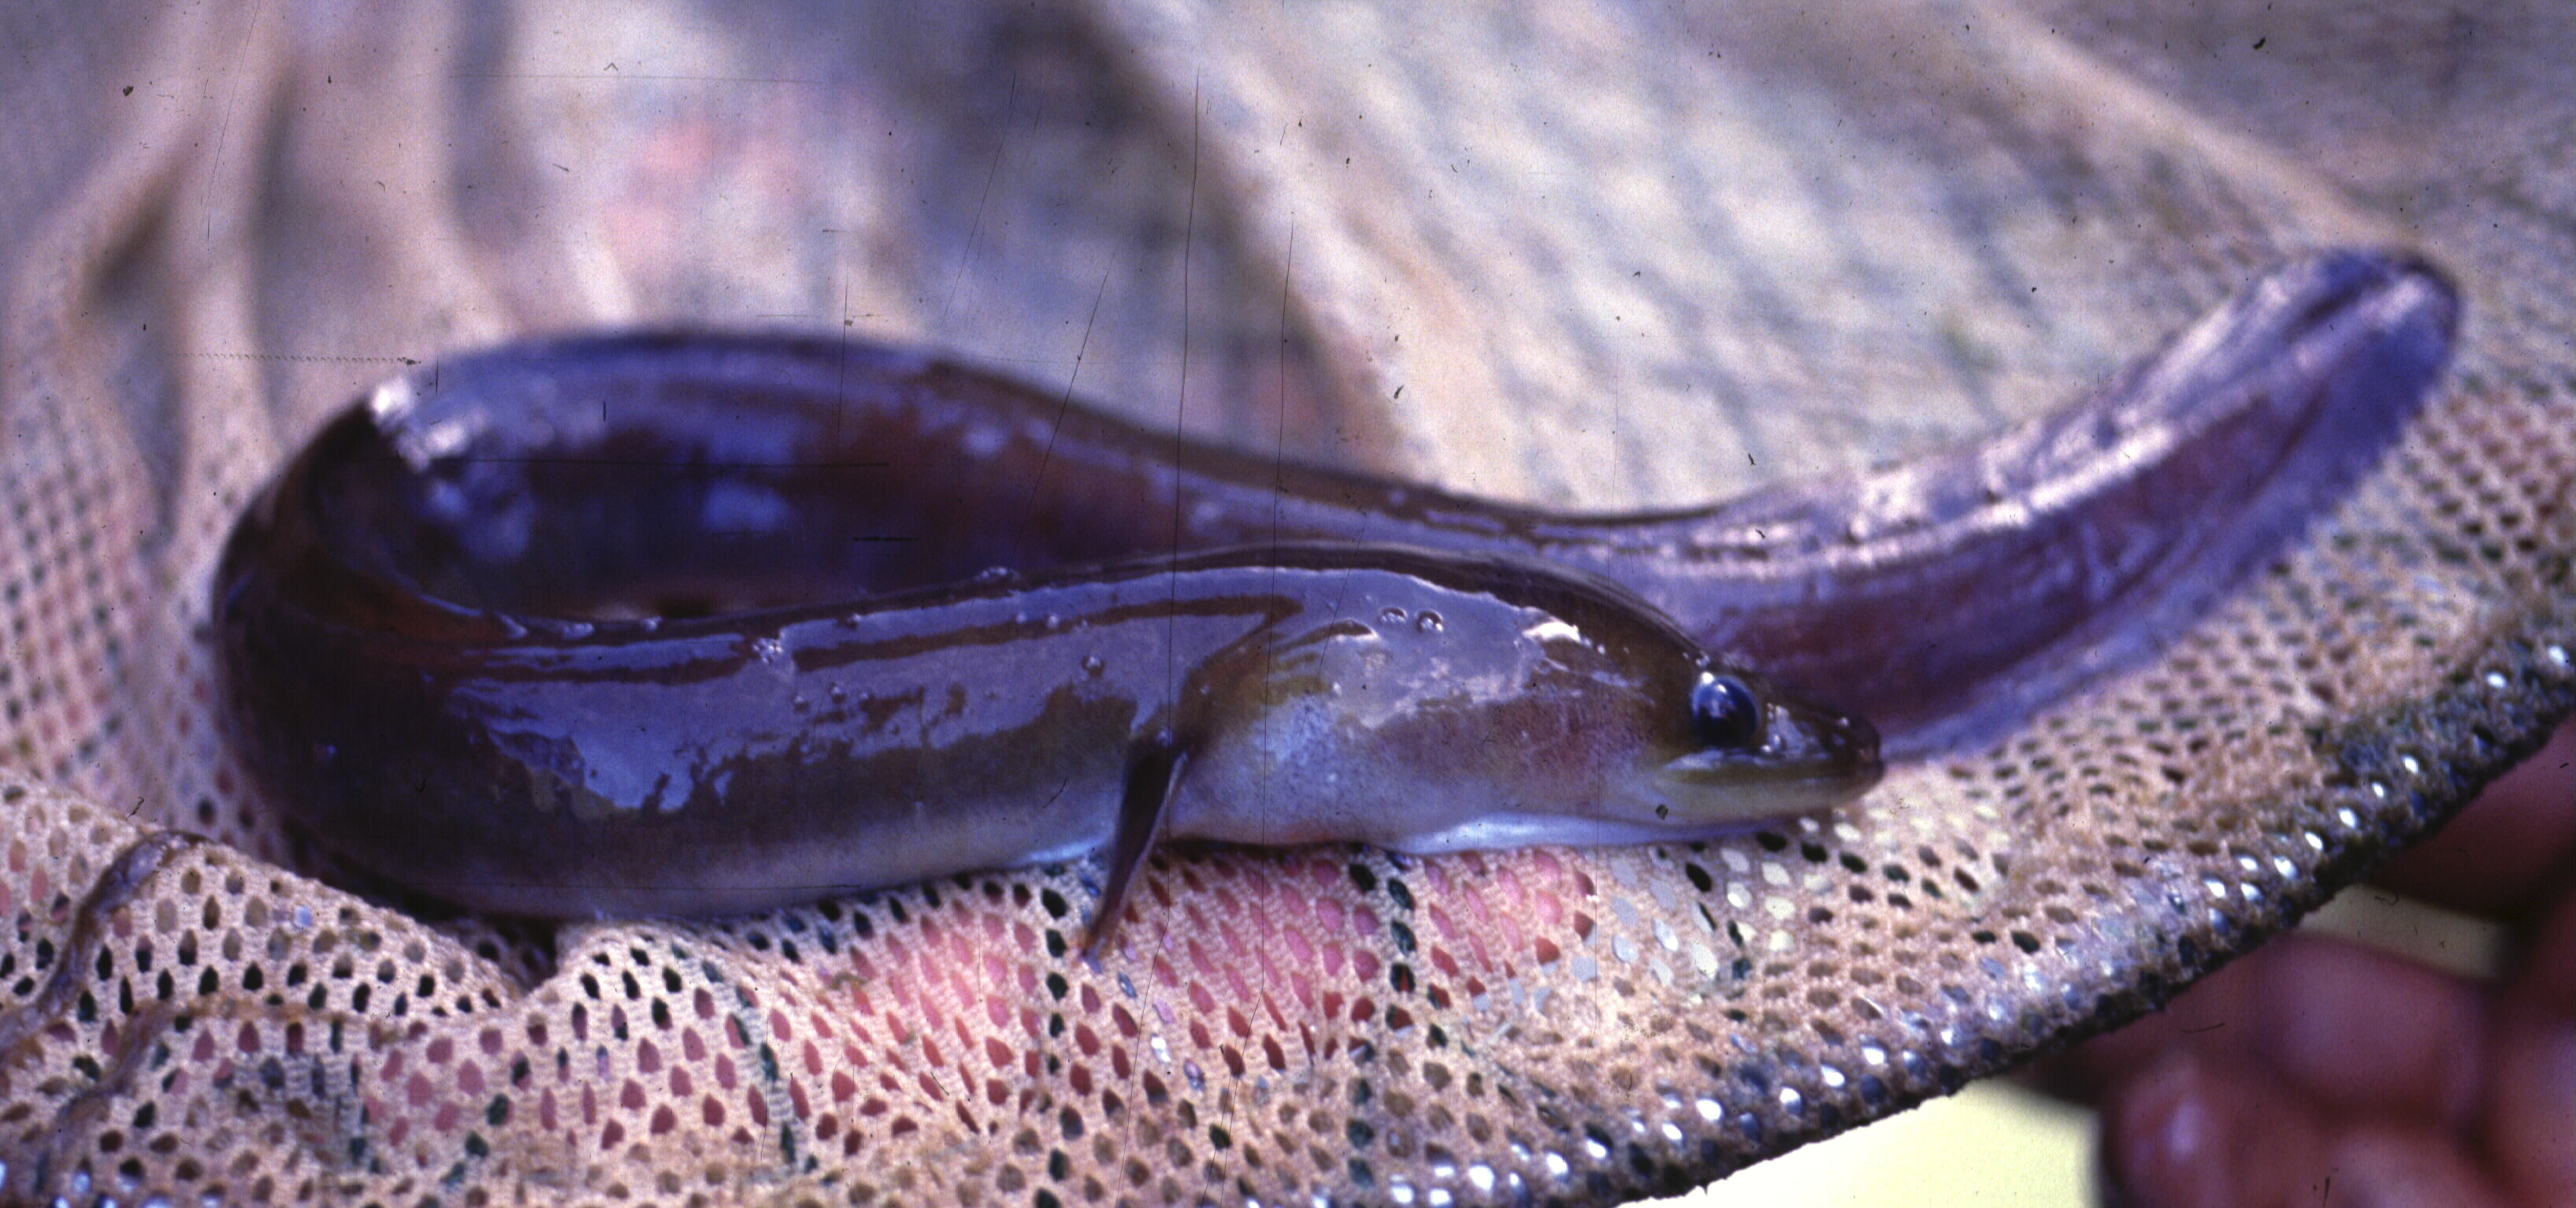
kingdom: Animalia
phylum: Chordata
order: Anguilliformes
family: Anguillidae
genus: Anguilla
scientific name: Anguilla mossambica
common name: African longfin eel
